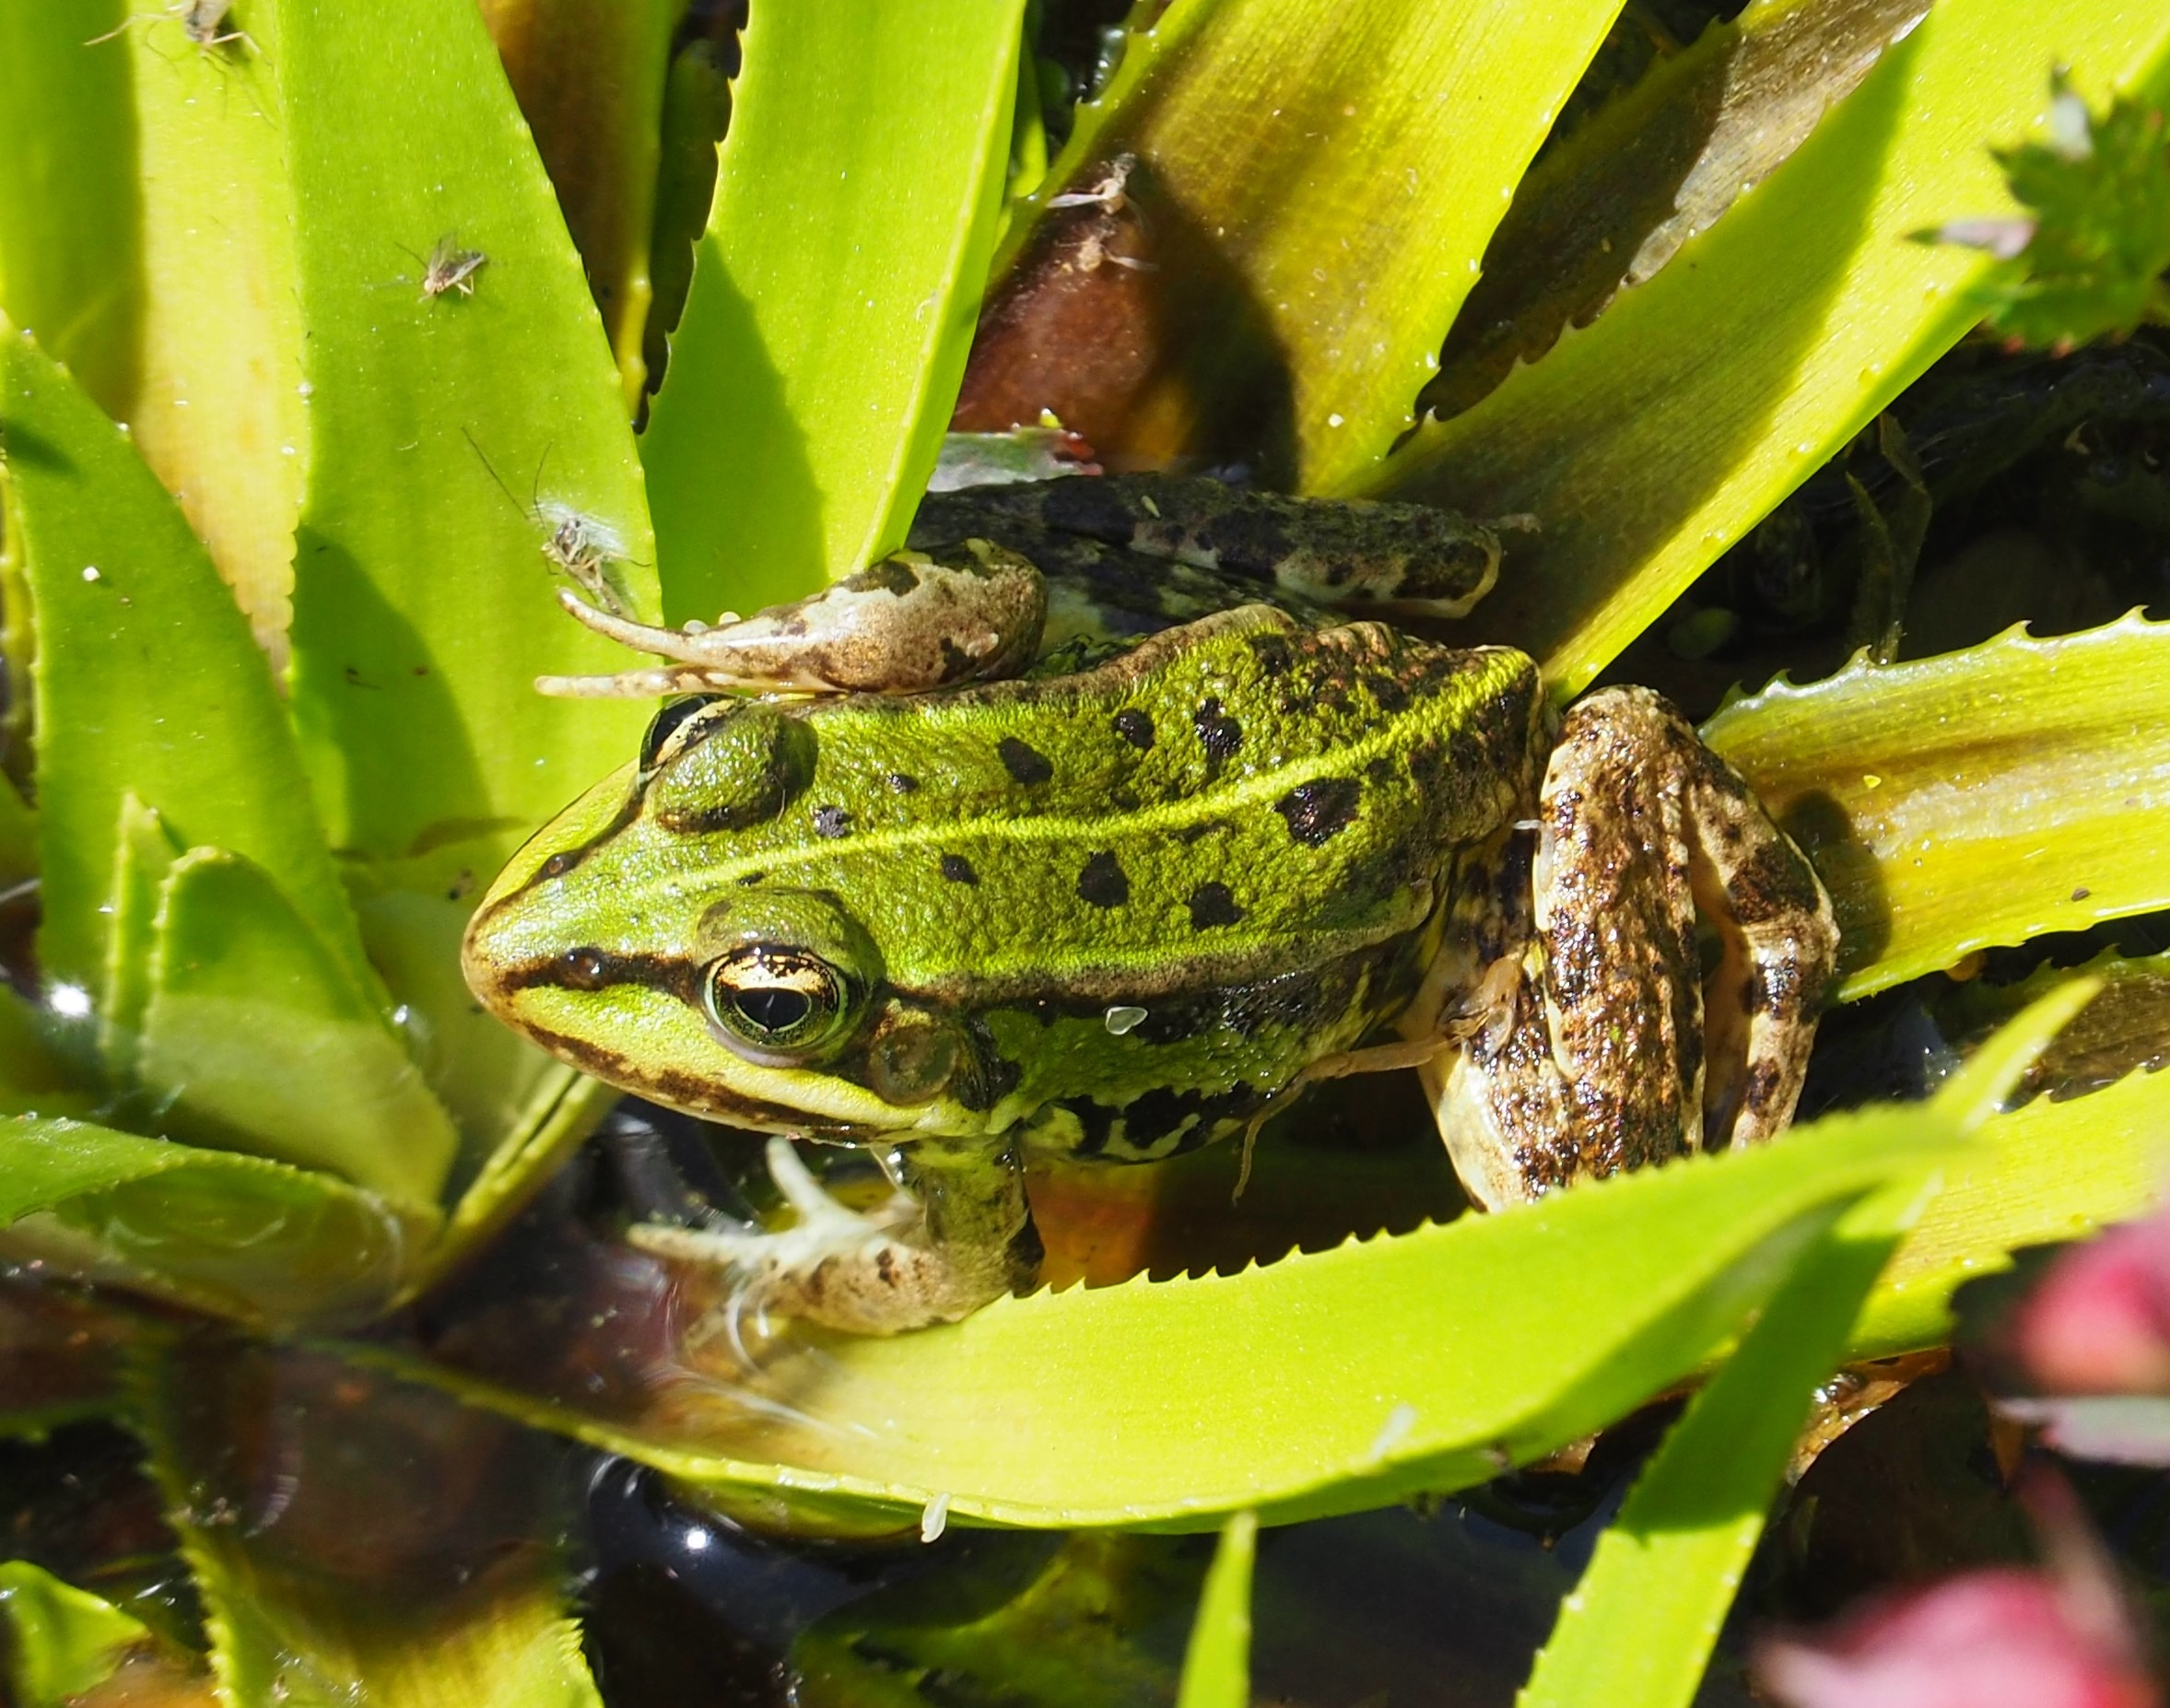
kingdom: Animalia
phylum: Chordata
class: Amphibia
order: Anura
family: Ranidae
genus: Pelophylax
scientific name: Pelophylax lessonae
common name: Grøn frø
